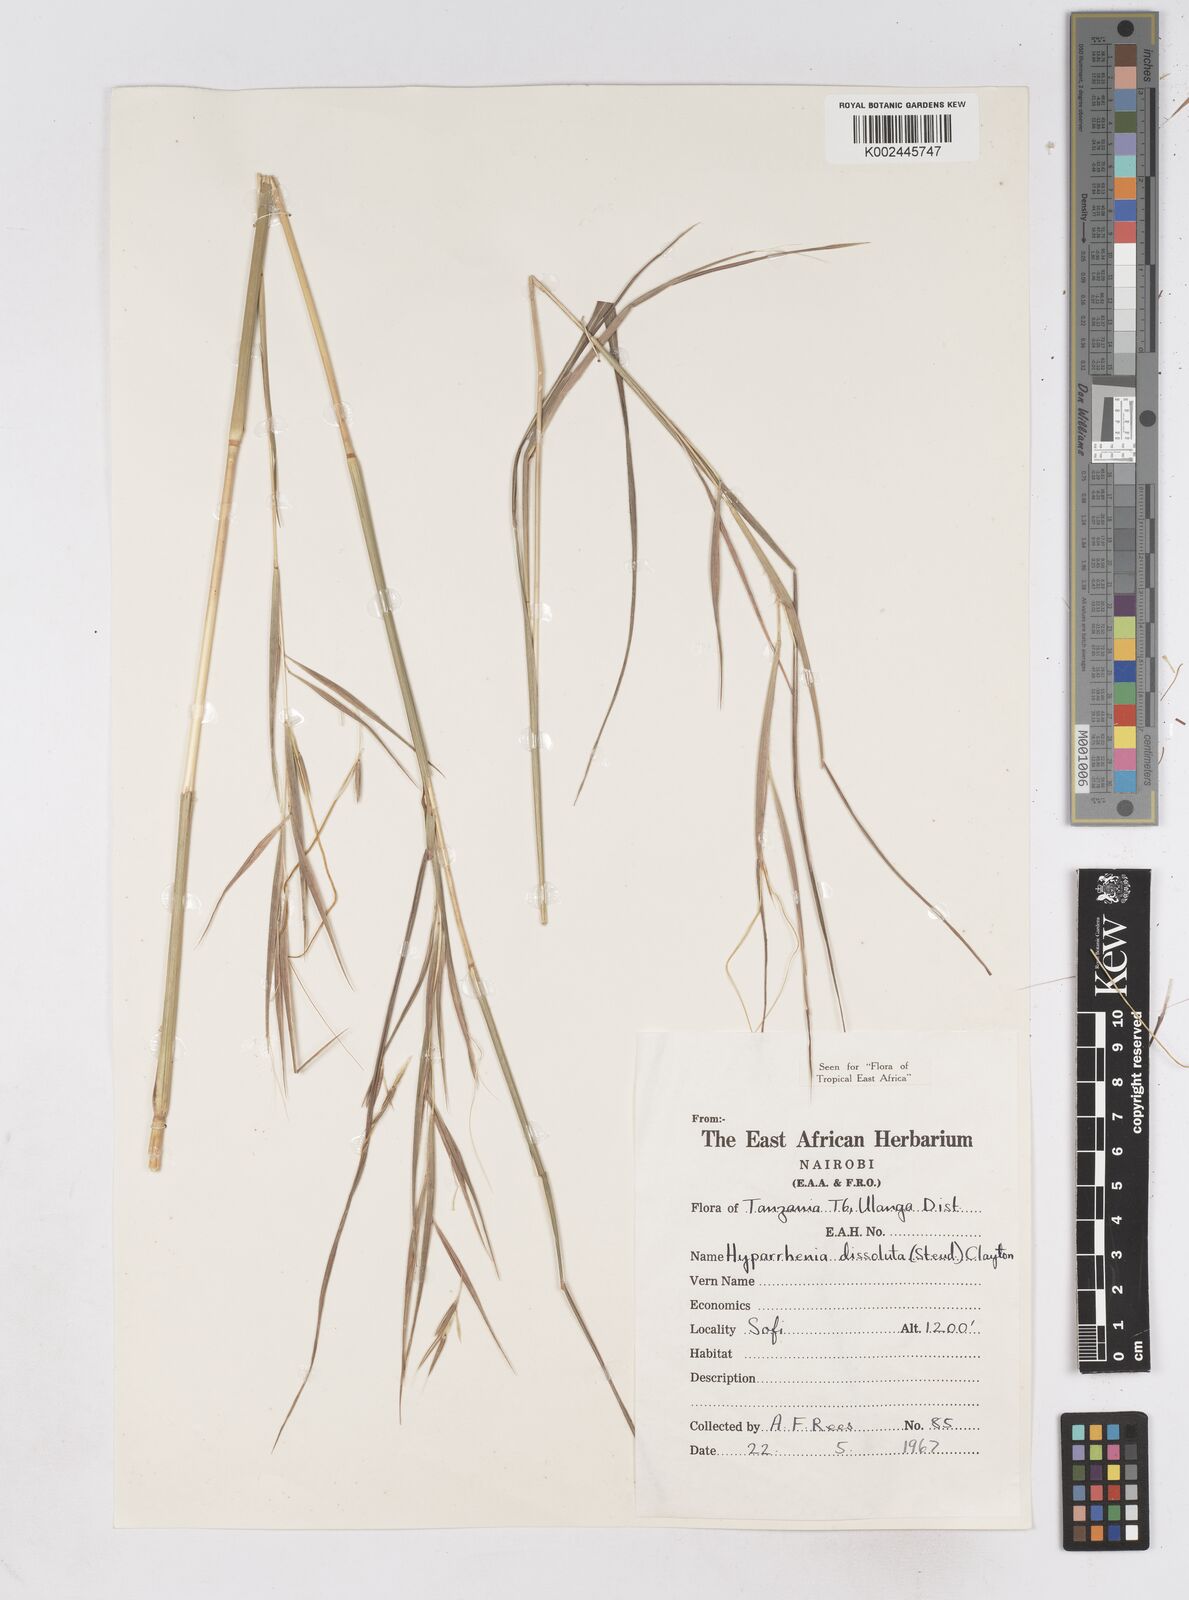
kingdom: Plantae
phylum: Tracheophyta
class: Liliopsida
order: Poales
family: Poaceae
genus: Hyperthelia
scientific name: Hyperthelia dissoluta
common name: Yellow thatching grass
